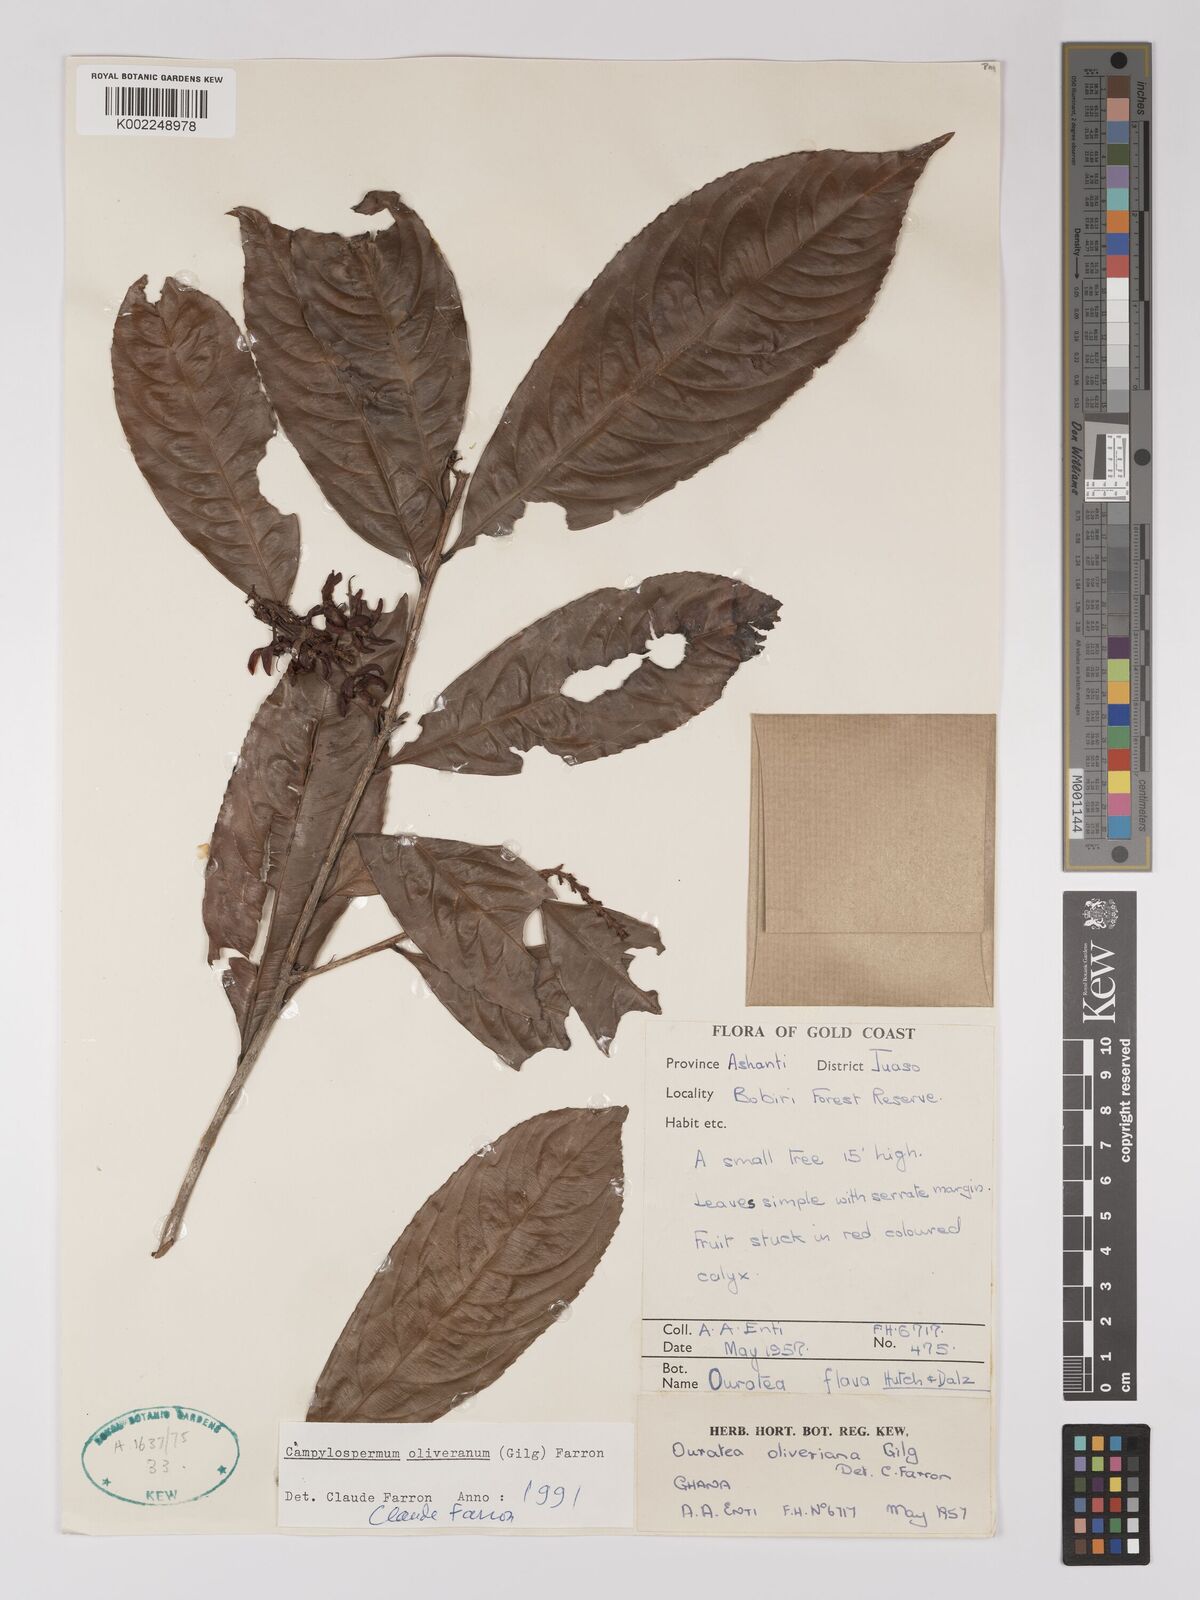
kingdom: Plantae
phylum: Tracheophyta
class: Magnoliopsida
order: Malpighiales
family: Ochnaceae
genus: Campylospermum
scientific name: Campylospermum oliverianum
